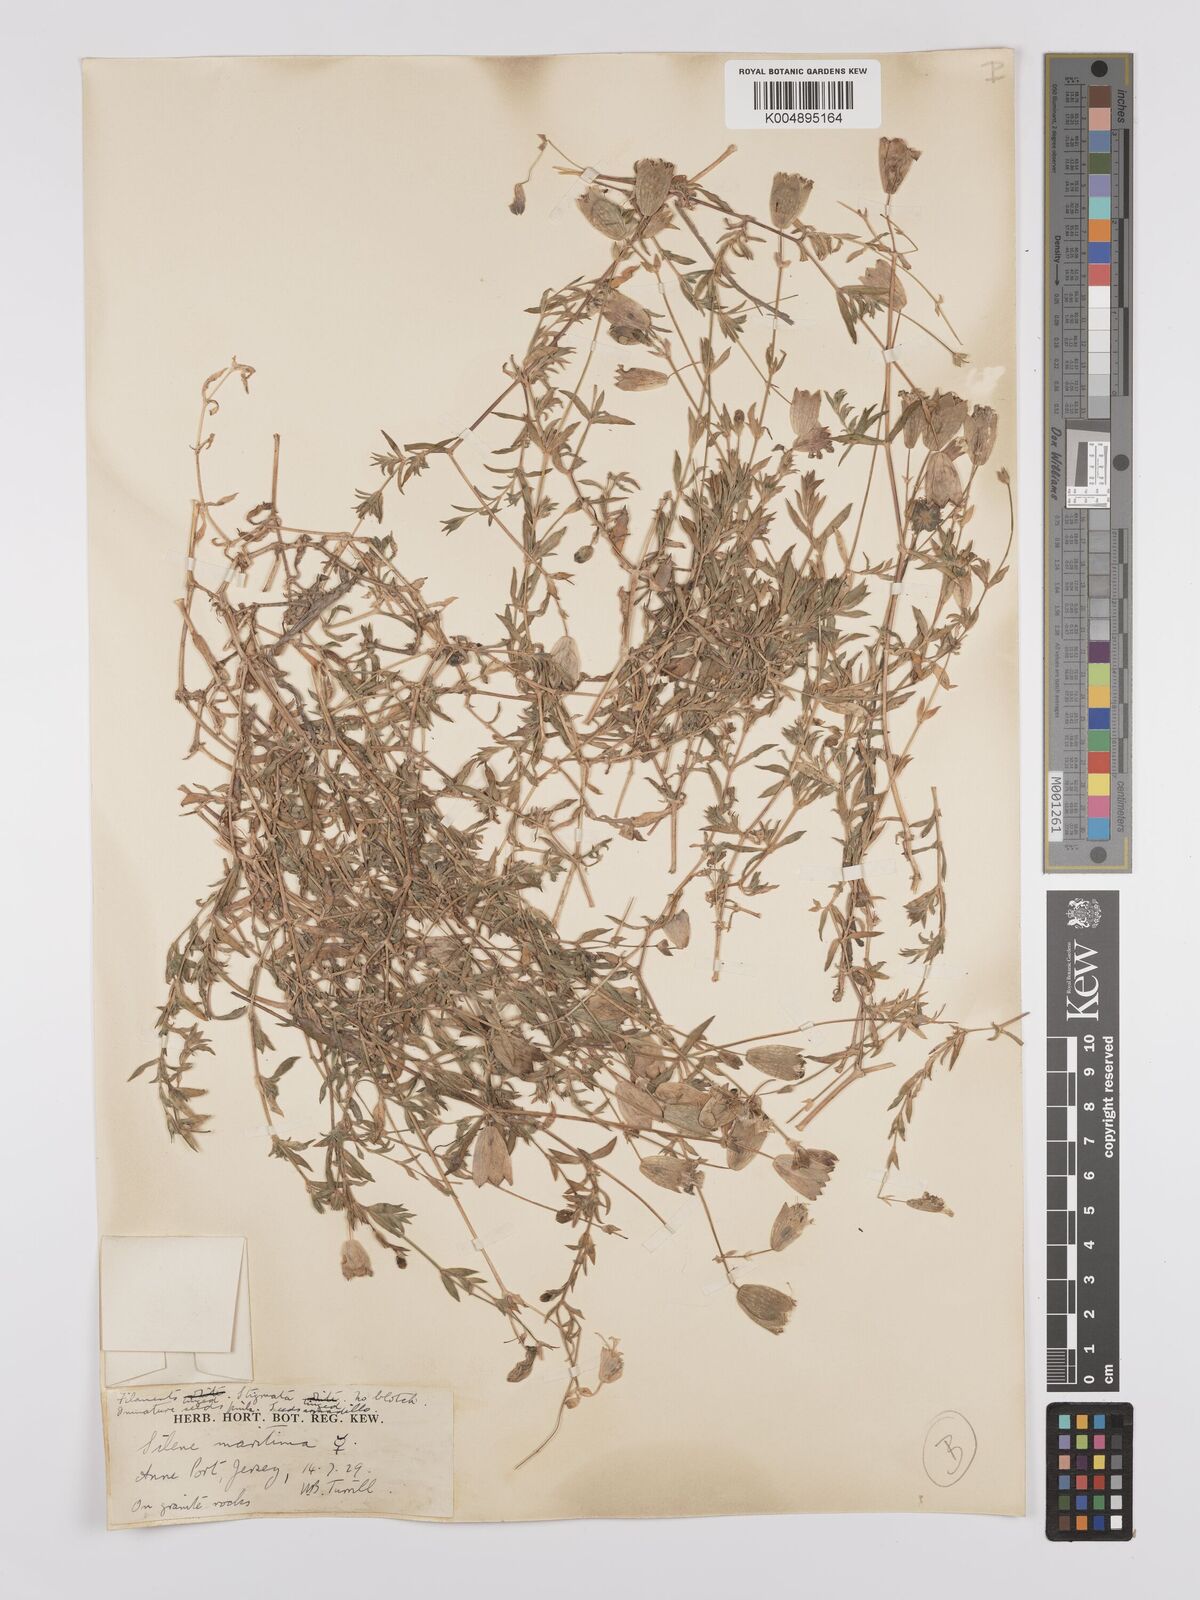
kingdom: Plantae
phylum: Tracheophyta
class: Magnoliopsida
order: Caryophyllales
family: Caryophyllaceae
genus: Silene
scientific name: Silene uniflora
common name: Sea campion
